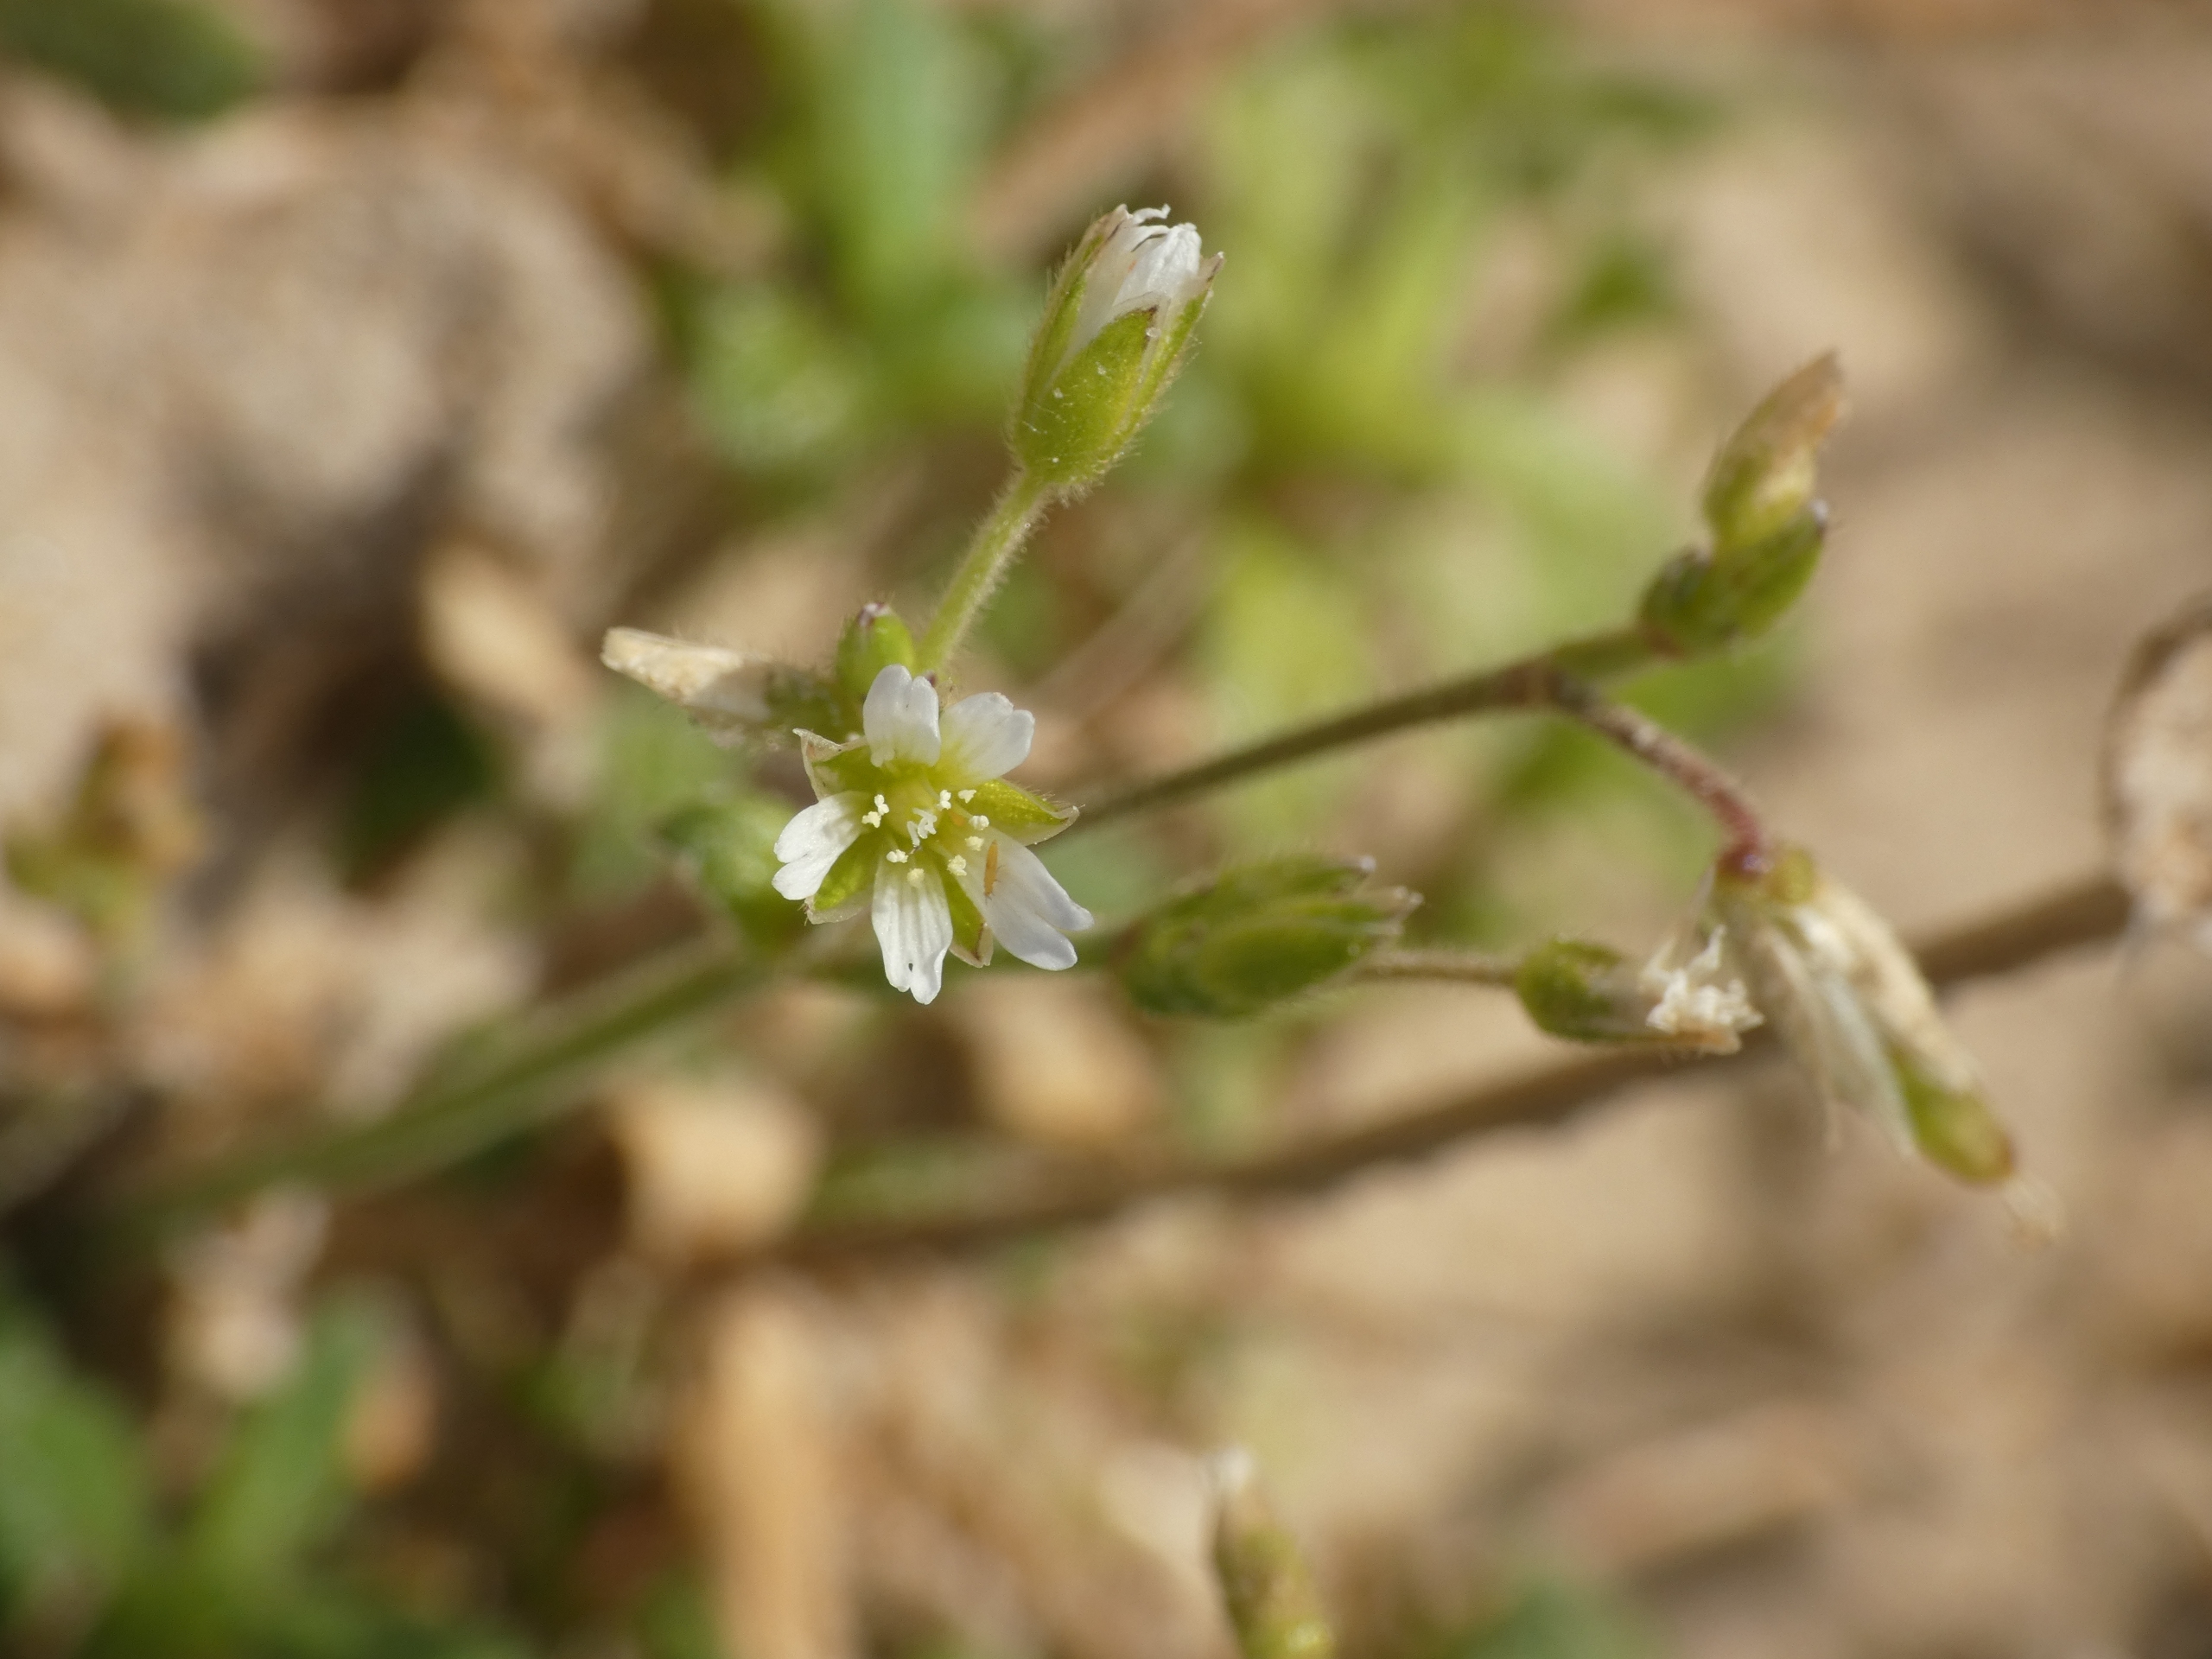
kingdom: Plantae
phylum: Tracheophyta
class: Magnoliopsida
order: Caryophyllales
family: Caryophyllaceae
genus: Cerastium
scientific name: Cerastium fontanum
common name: Almindelig hønsetarm
